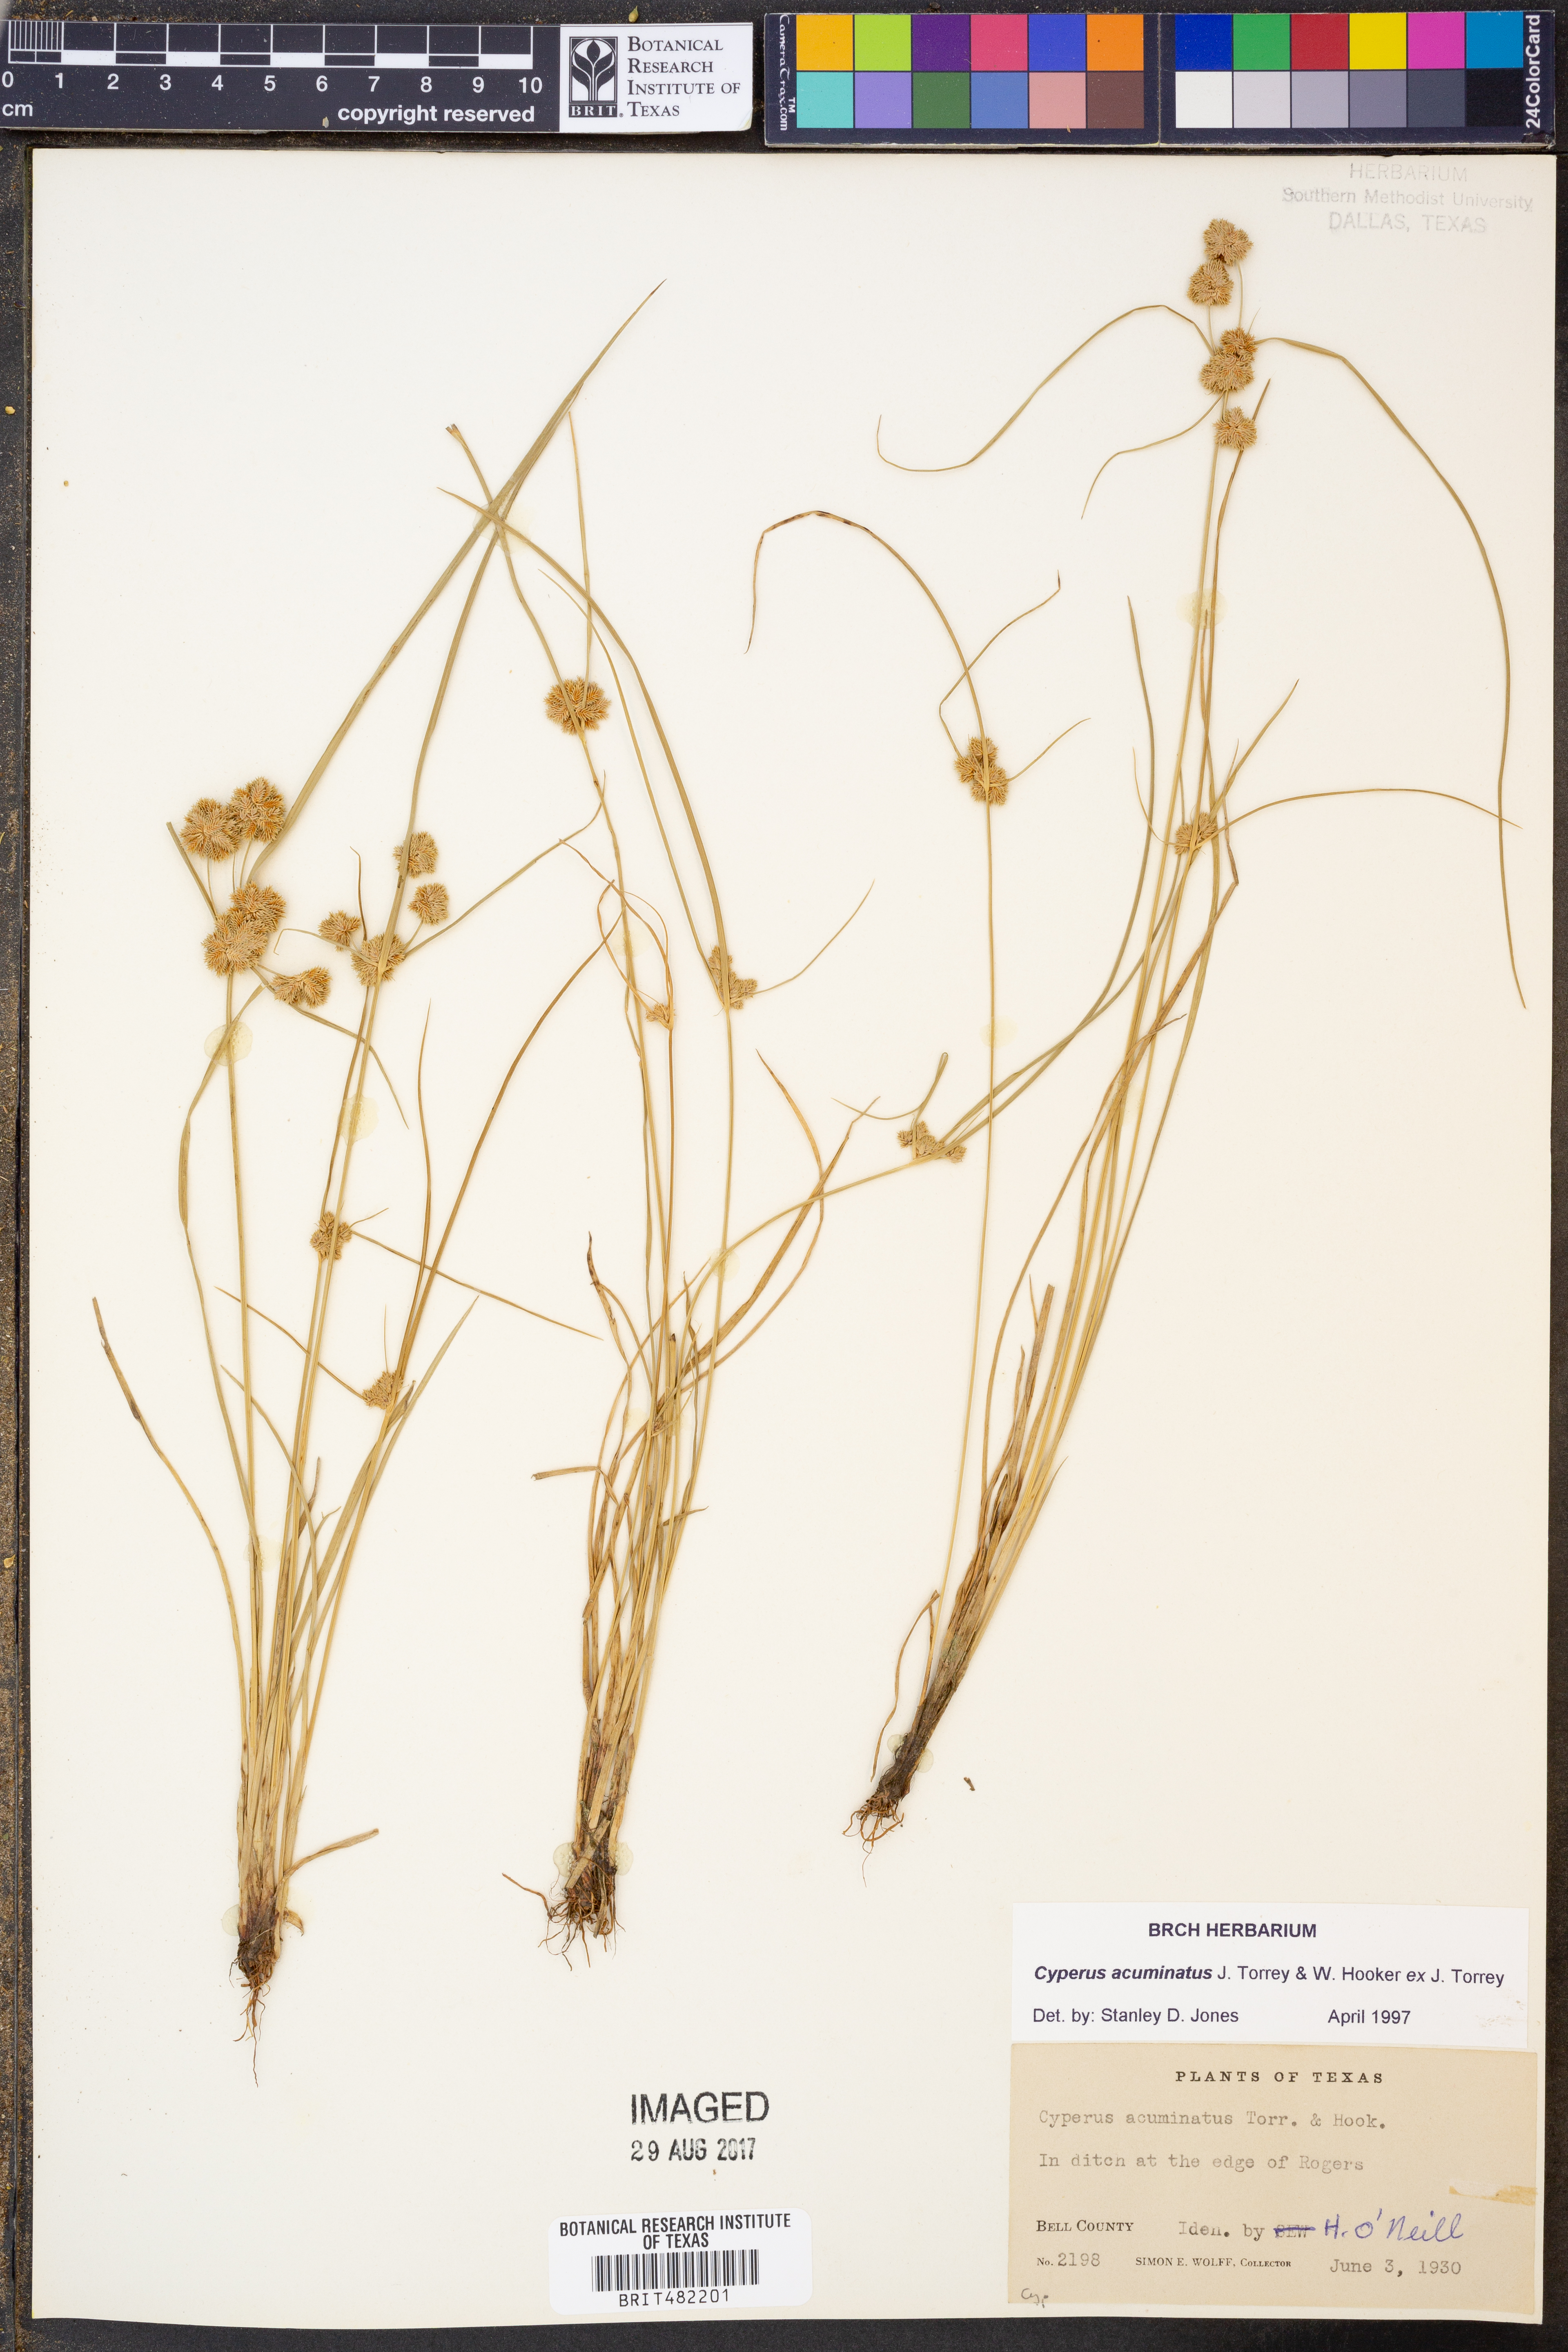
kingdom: Plantae
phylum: Tracheophyta
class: Liliopsida
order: Poales
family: Cyperaceae
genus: Cyperus
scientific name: Cyperus acuminatus
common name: Short-pointed cyperus
